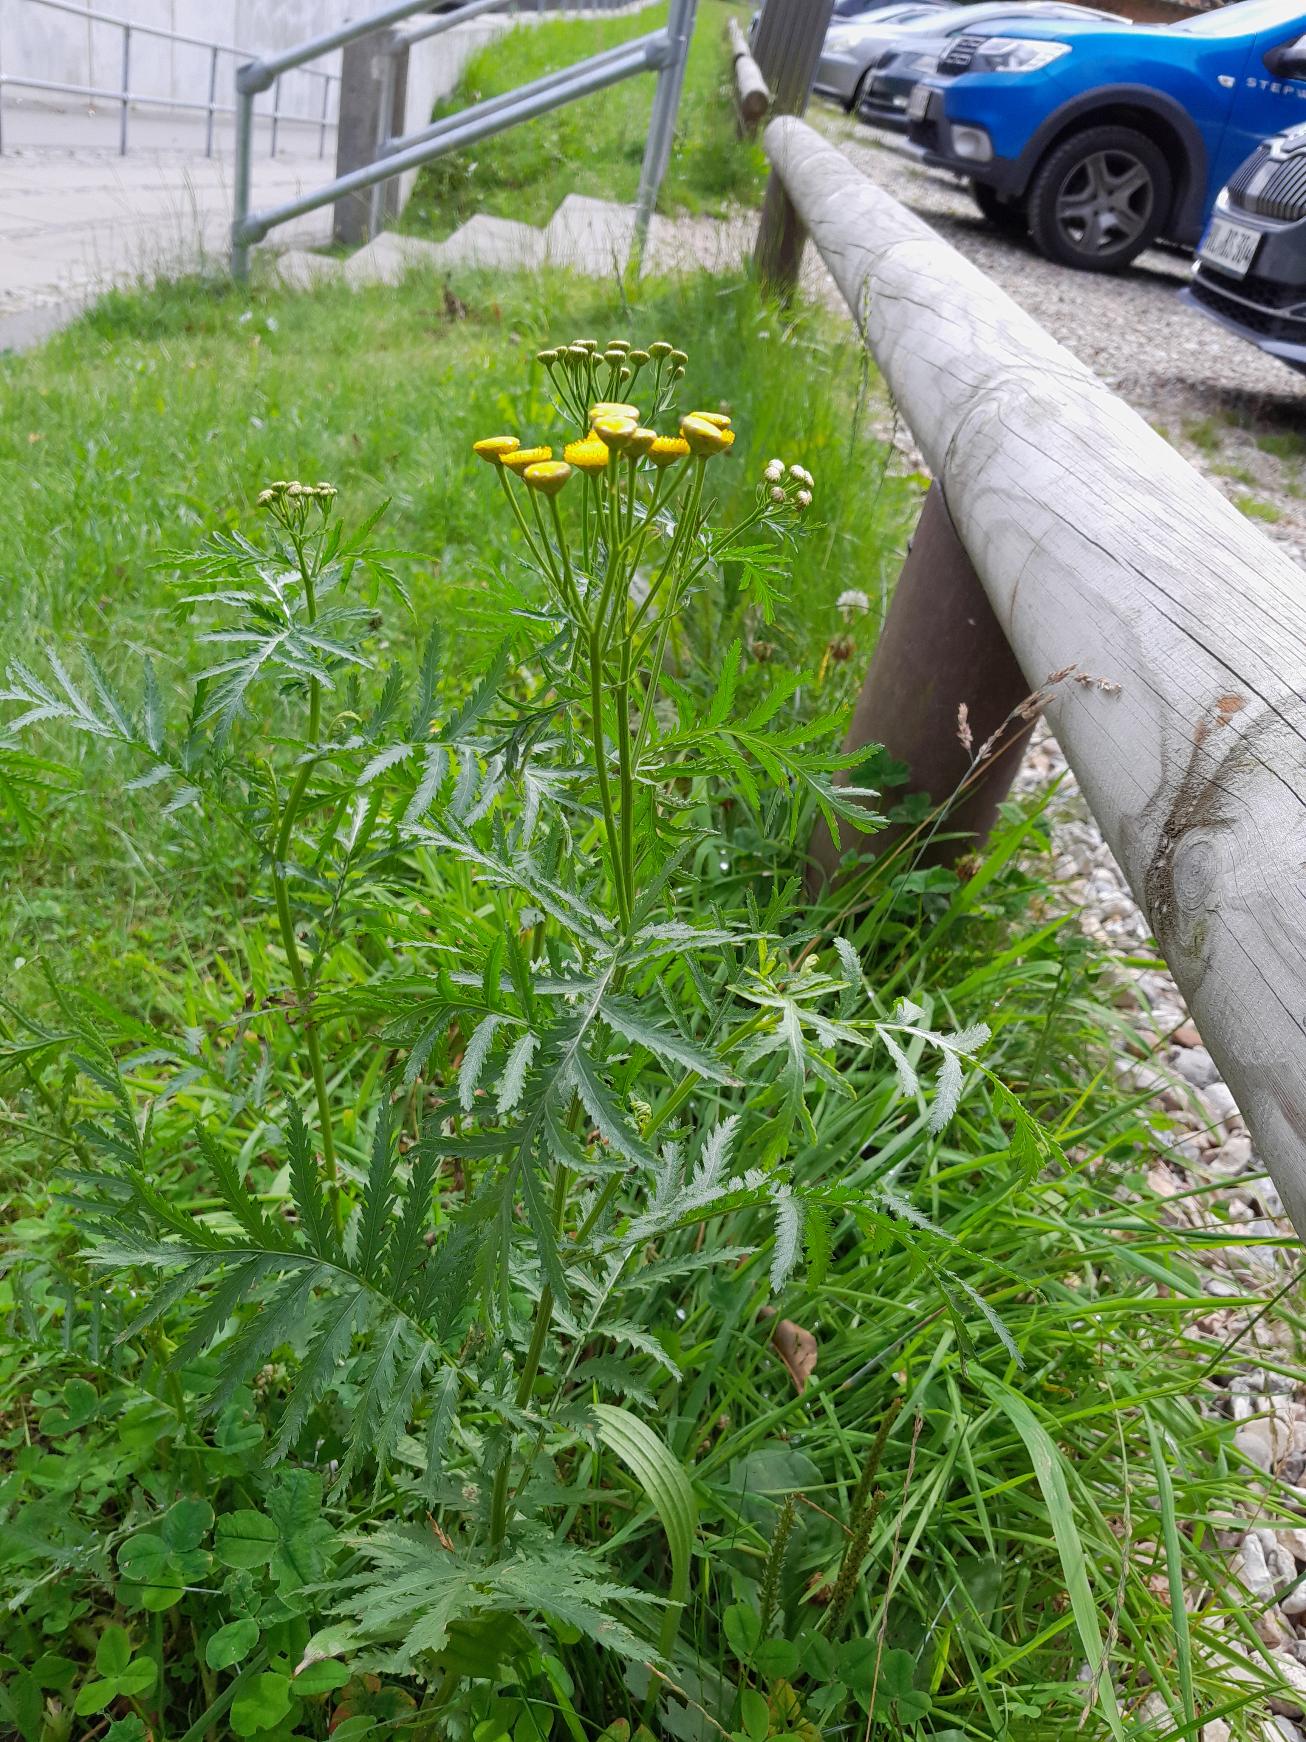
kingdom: Plantae
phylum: Tracheophyta
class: Magnoliopsida
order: Asterales
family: Asteraceae
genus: Tanacetum
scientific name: Tanacetum vulgare
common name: Rejnfan
